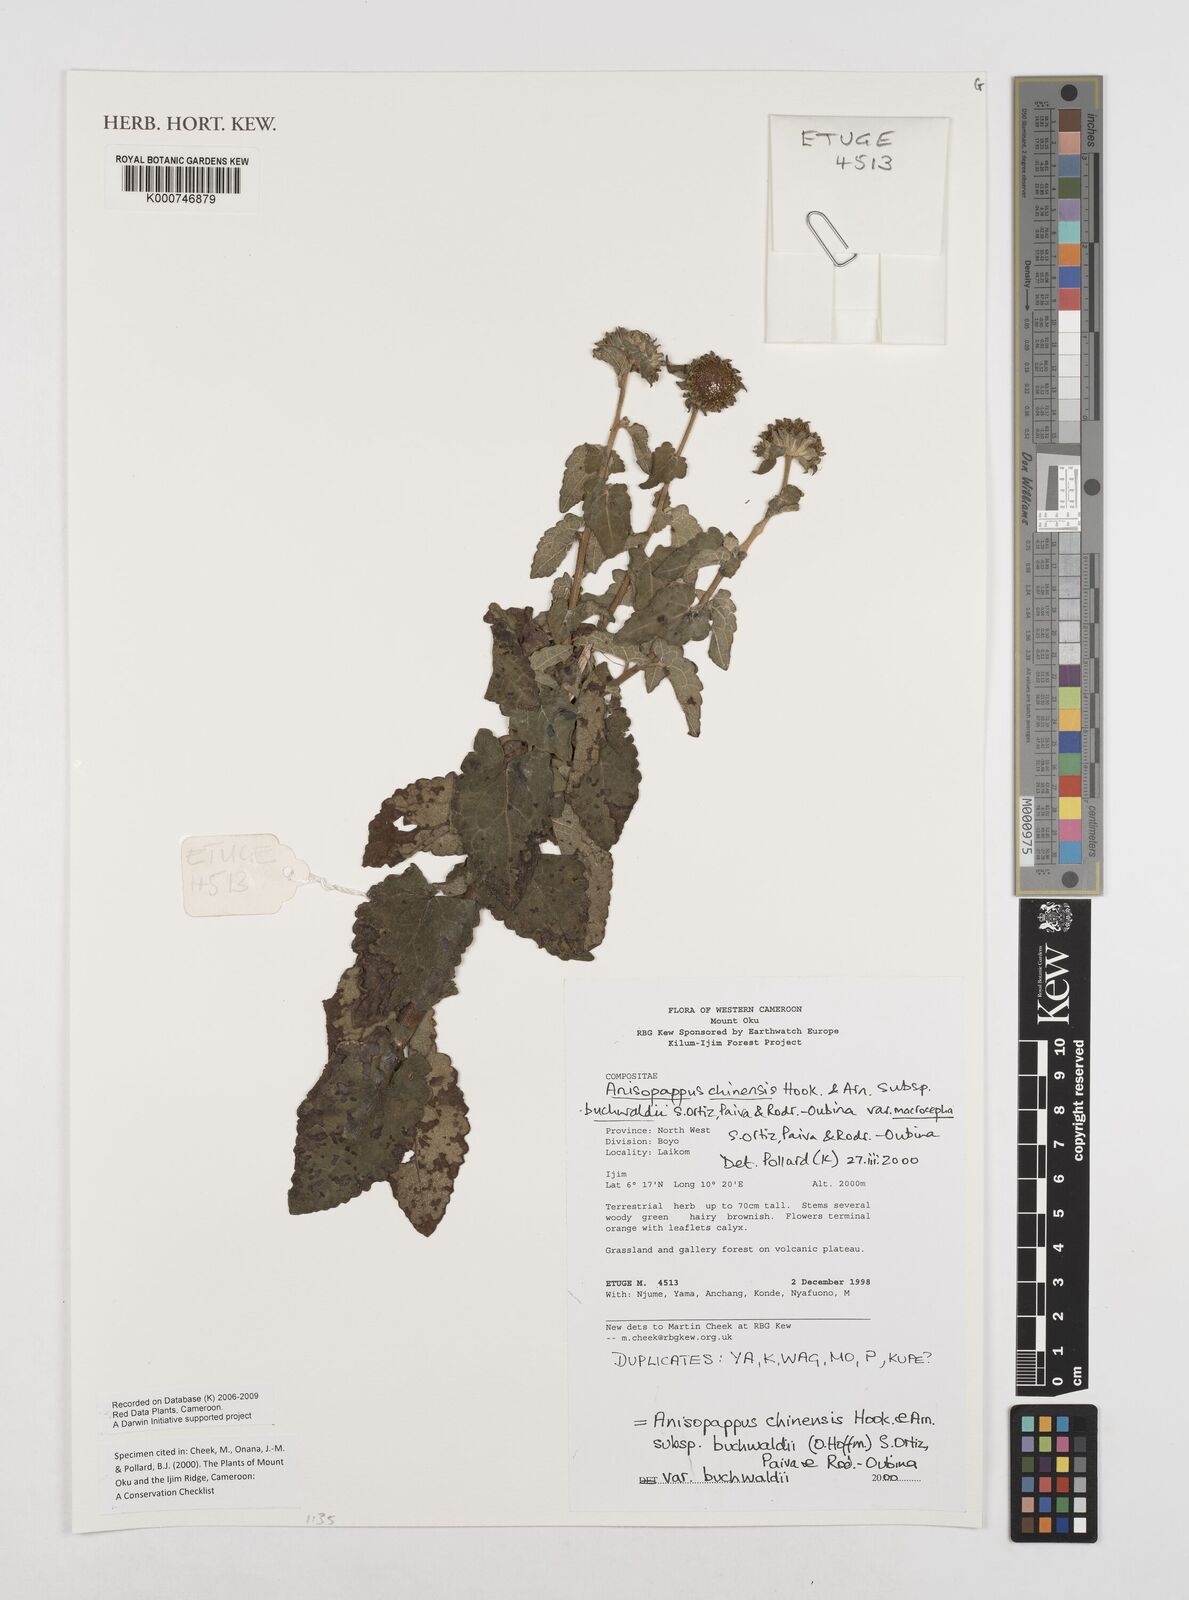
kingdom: Plantae
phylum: Tracheophyta
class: Magnoliopsida
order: Asterales
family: Asteraceae
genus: Anisopappus
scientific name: Anisopappus chinensis
